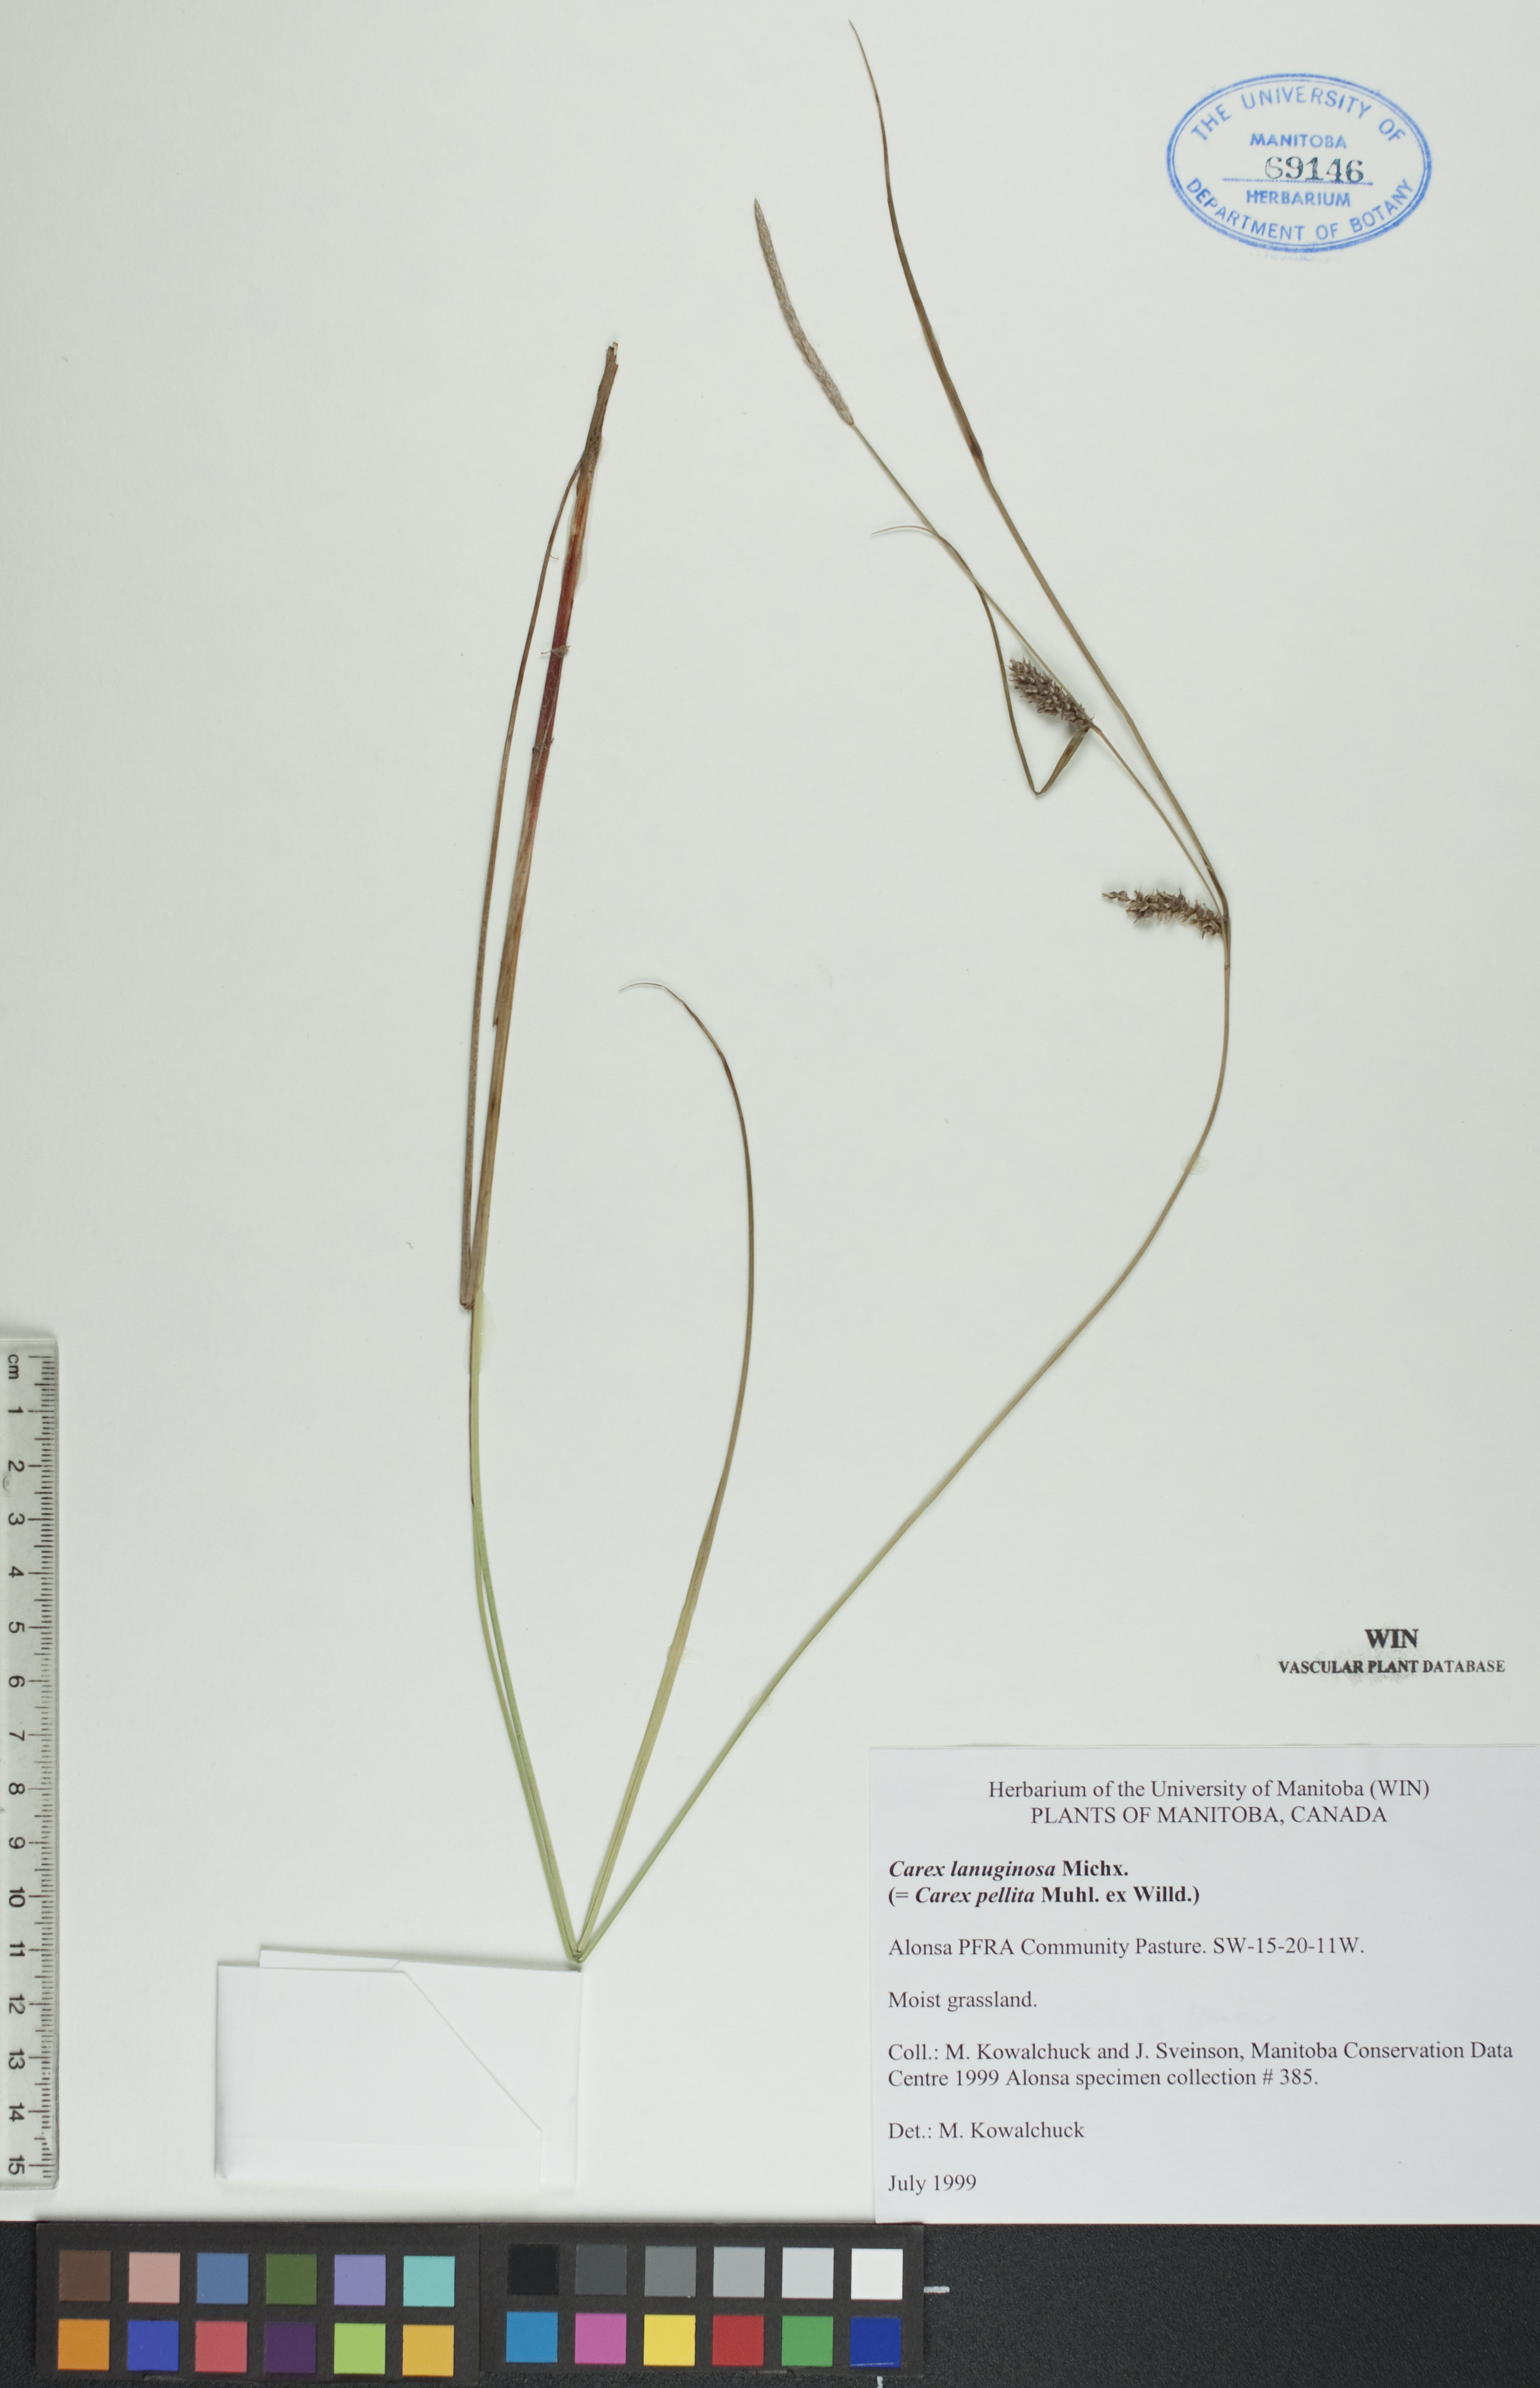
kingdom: Plantae
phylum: Tracheophyta
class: Liliopsida
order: Poales
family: Cyperaceae
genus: Carex
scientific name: Carex lasiocarpa
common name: Slender sedge
